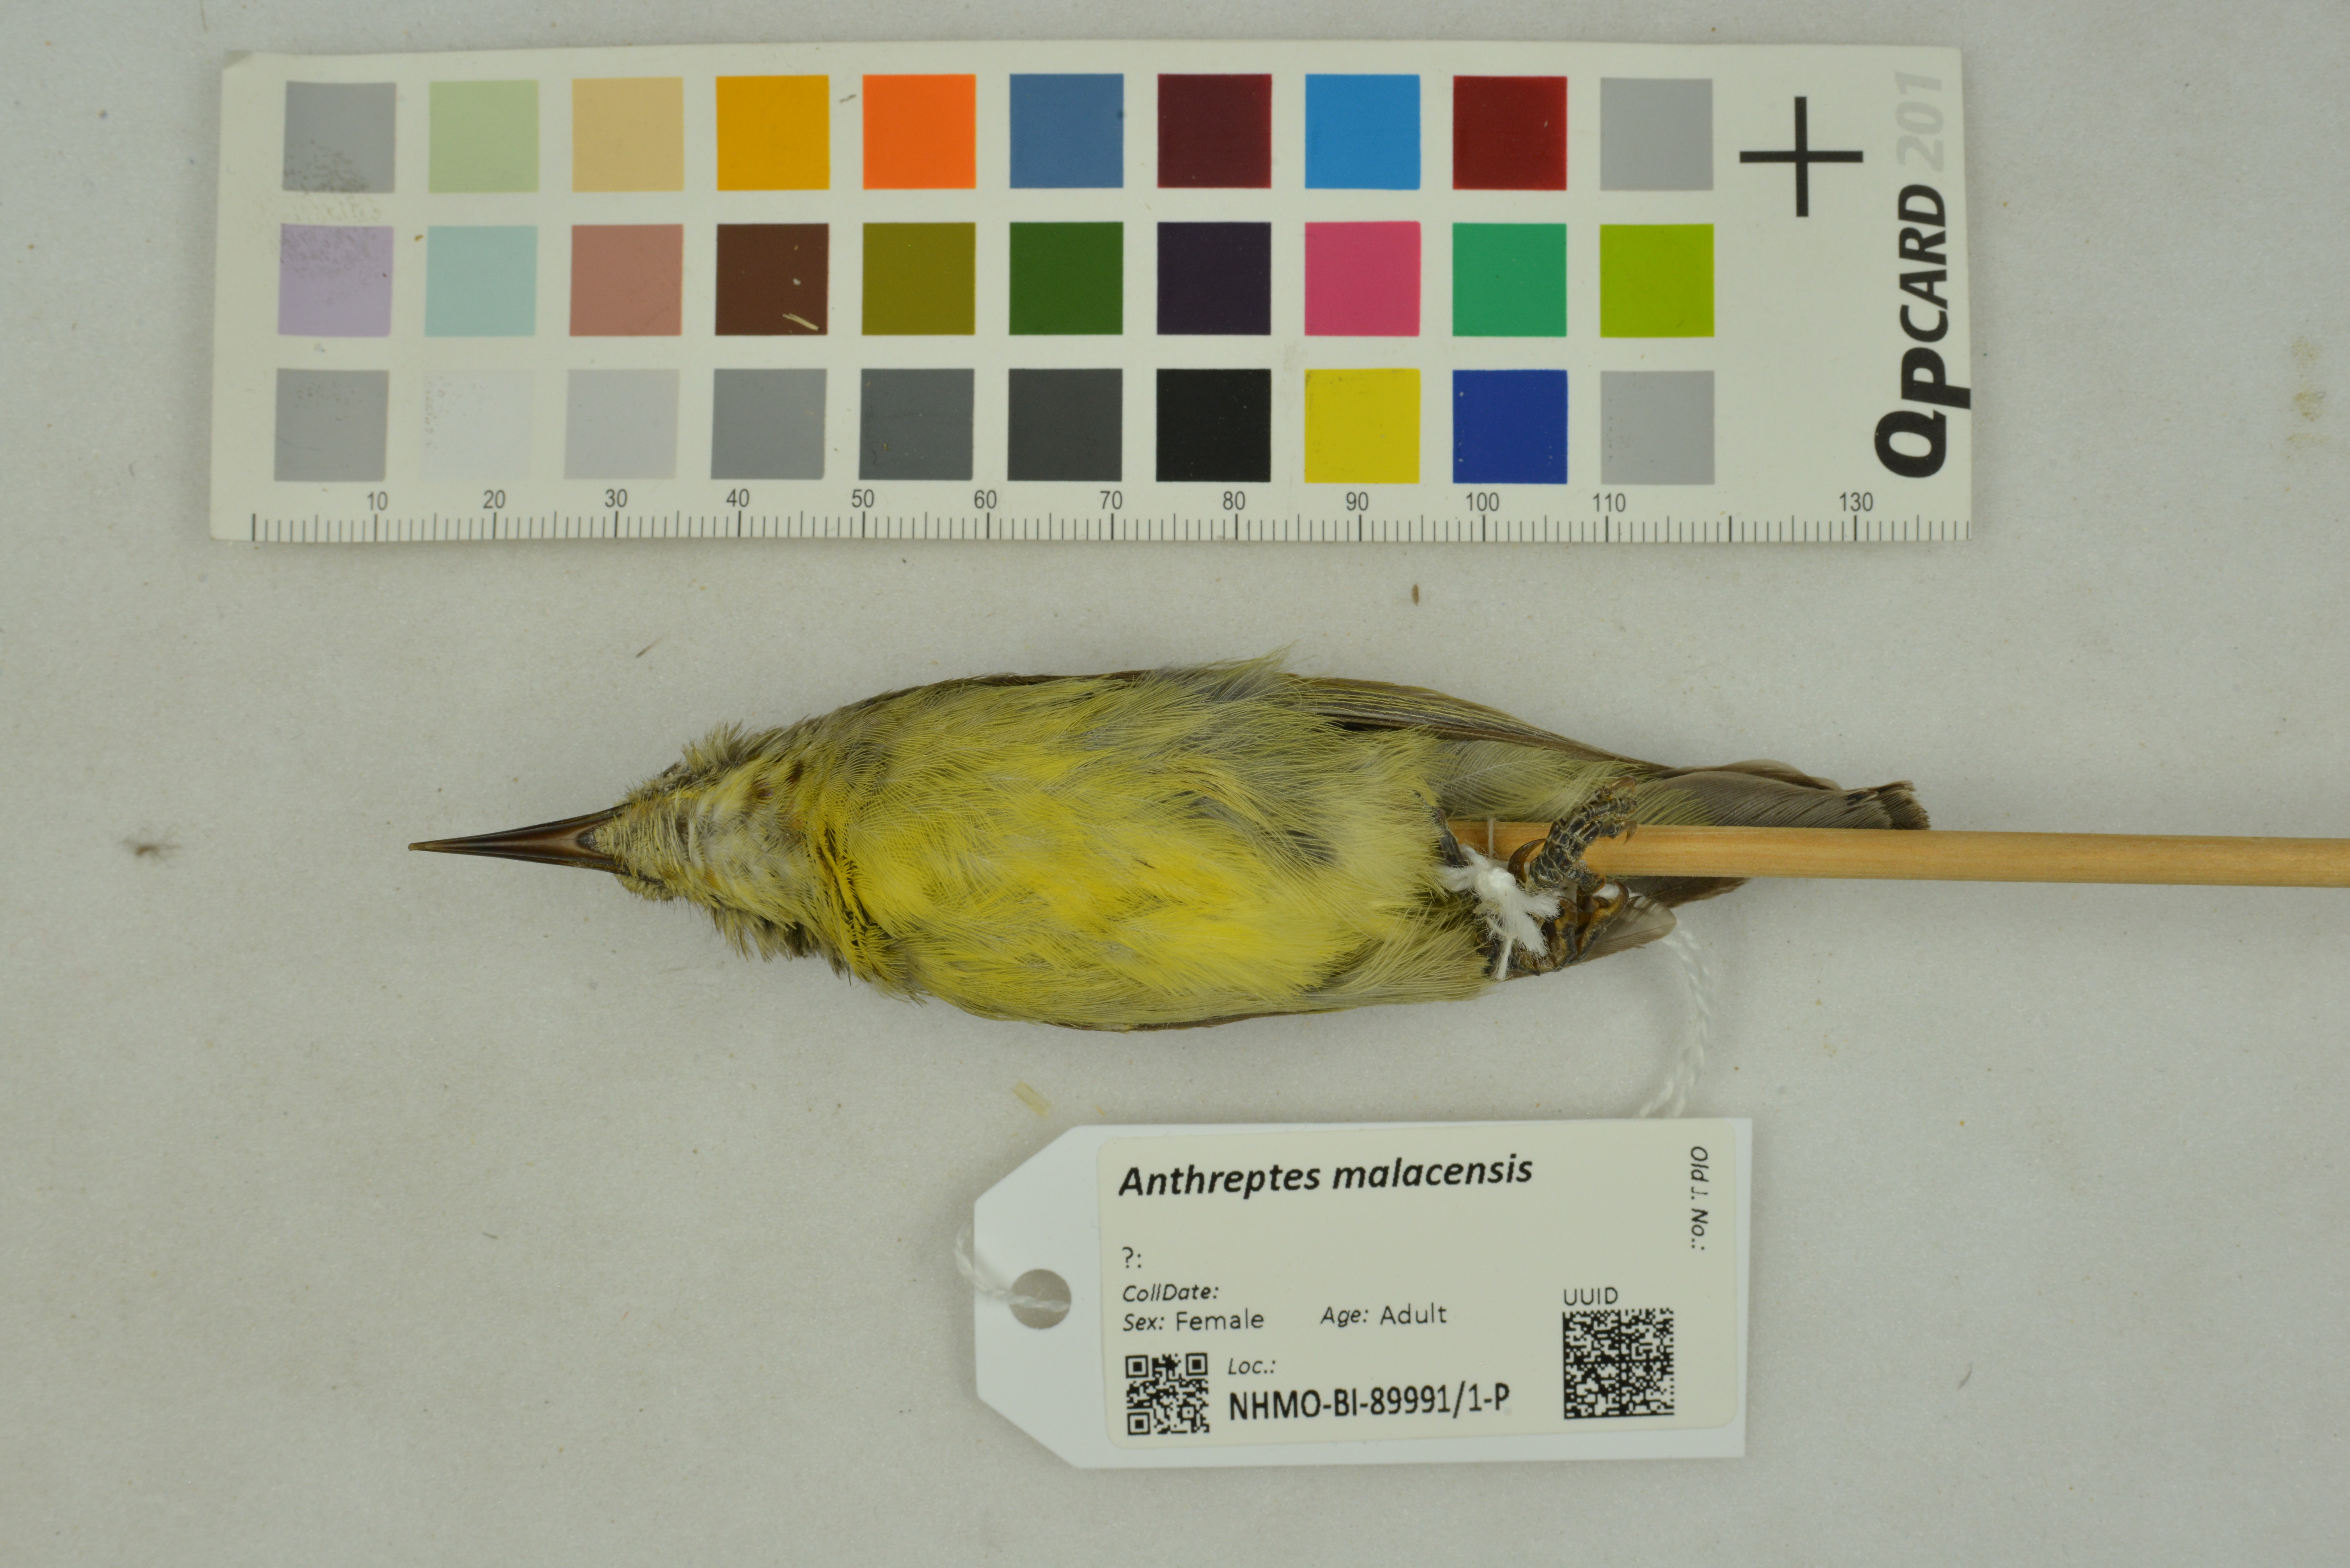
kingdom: Animalia
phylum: Chordata
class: Aves
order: Passeriformes
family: Nectariniidae
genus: Anthreptes
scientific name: Anthreptes malacensis
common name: Brown-throated sunbird
